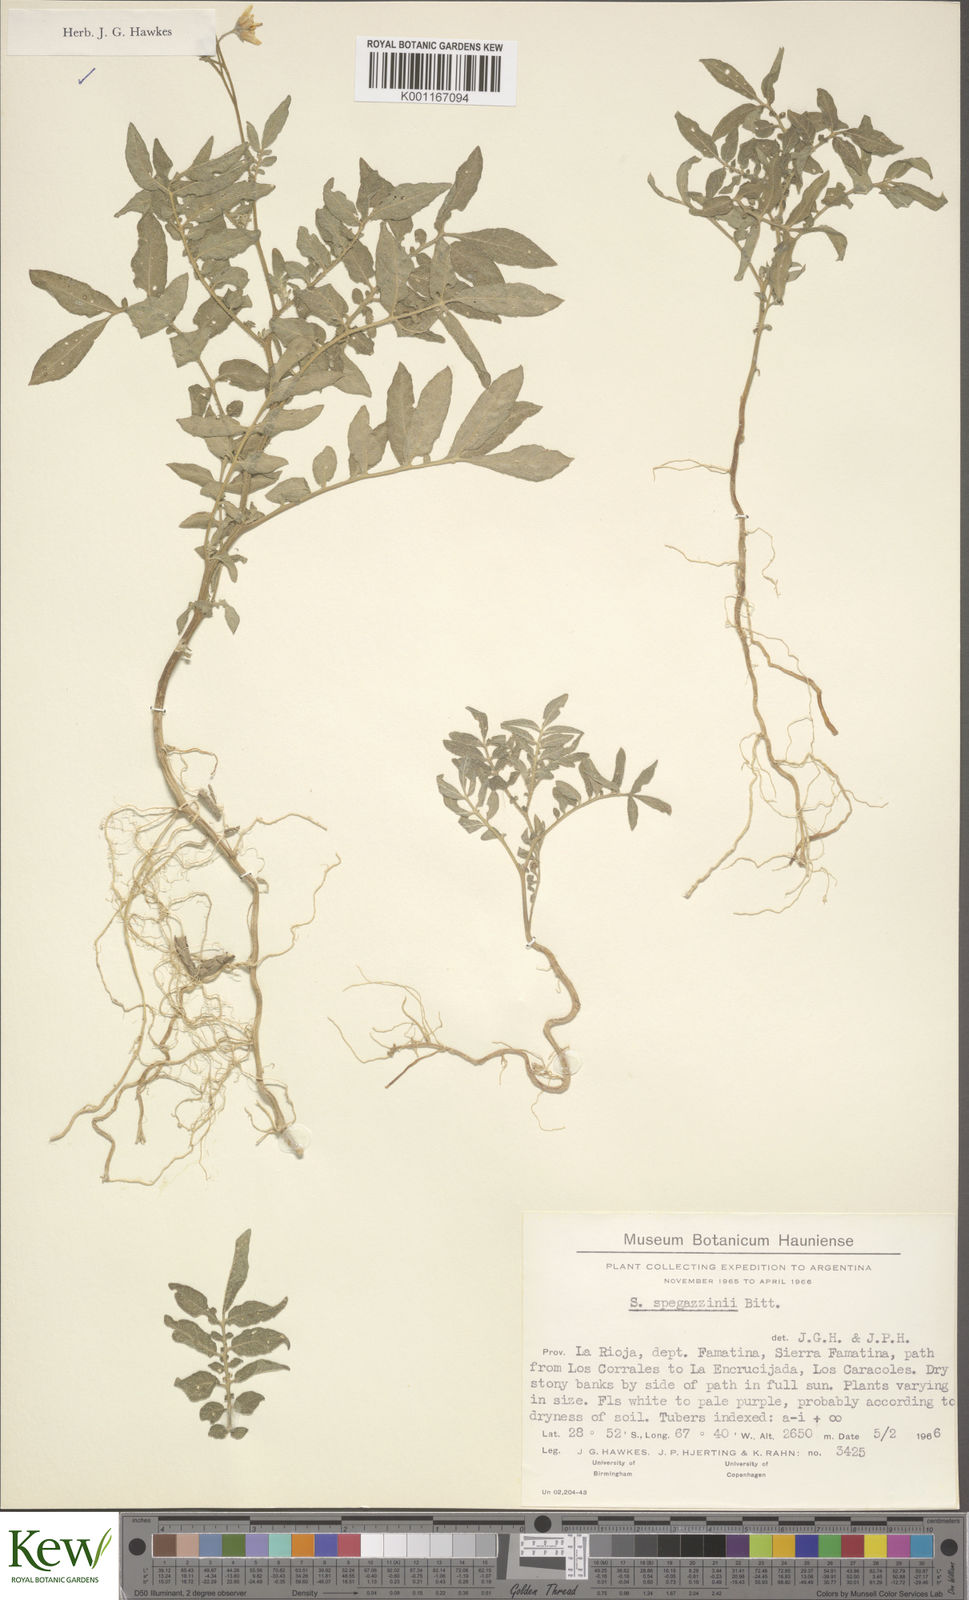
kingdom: Plantae
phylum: Tracheophyta
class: Magnoliopsida
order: Solanales
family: Solanaceae
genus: Solanum
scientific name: Solanum brevicaule
